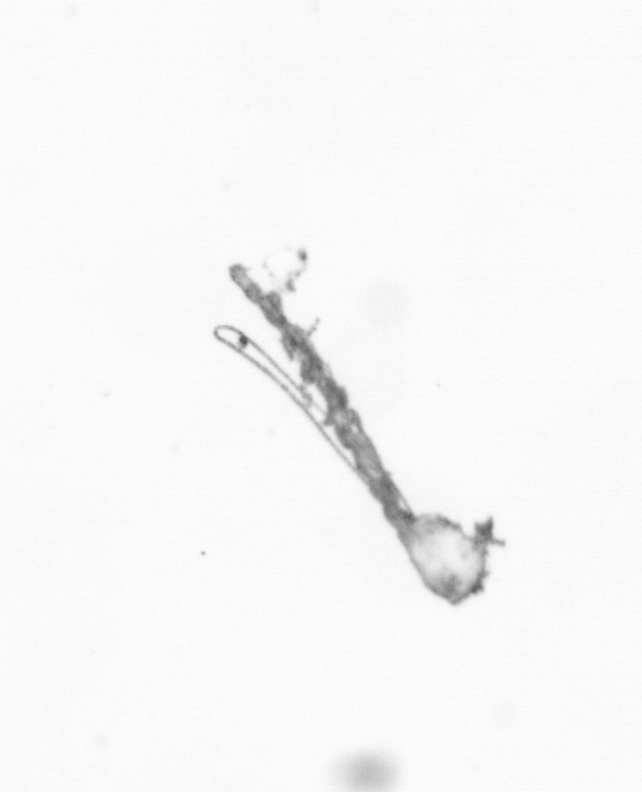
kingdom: Chromista
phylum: Ochrophyta
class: Bacillariophyceae
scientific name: Bacillariophyceae
